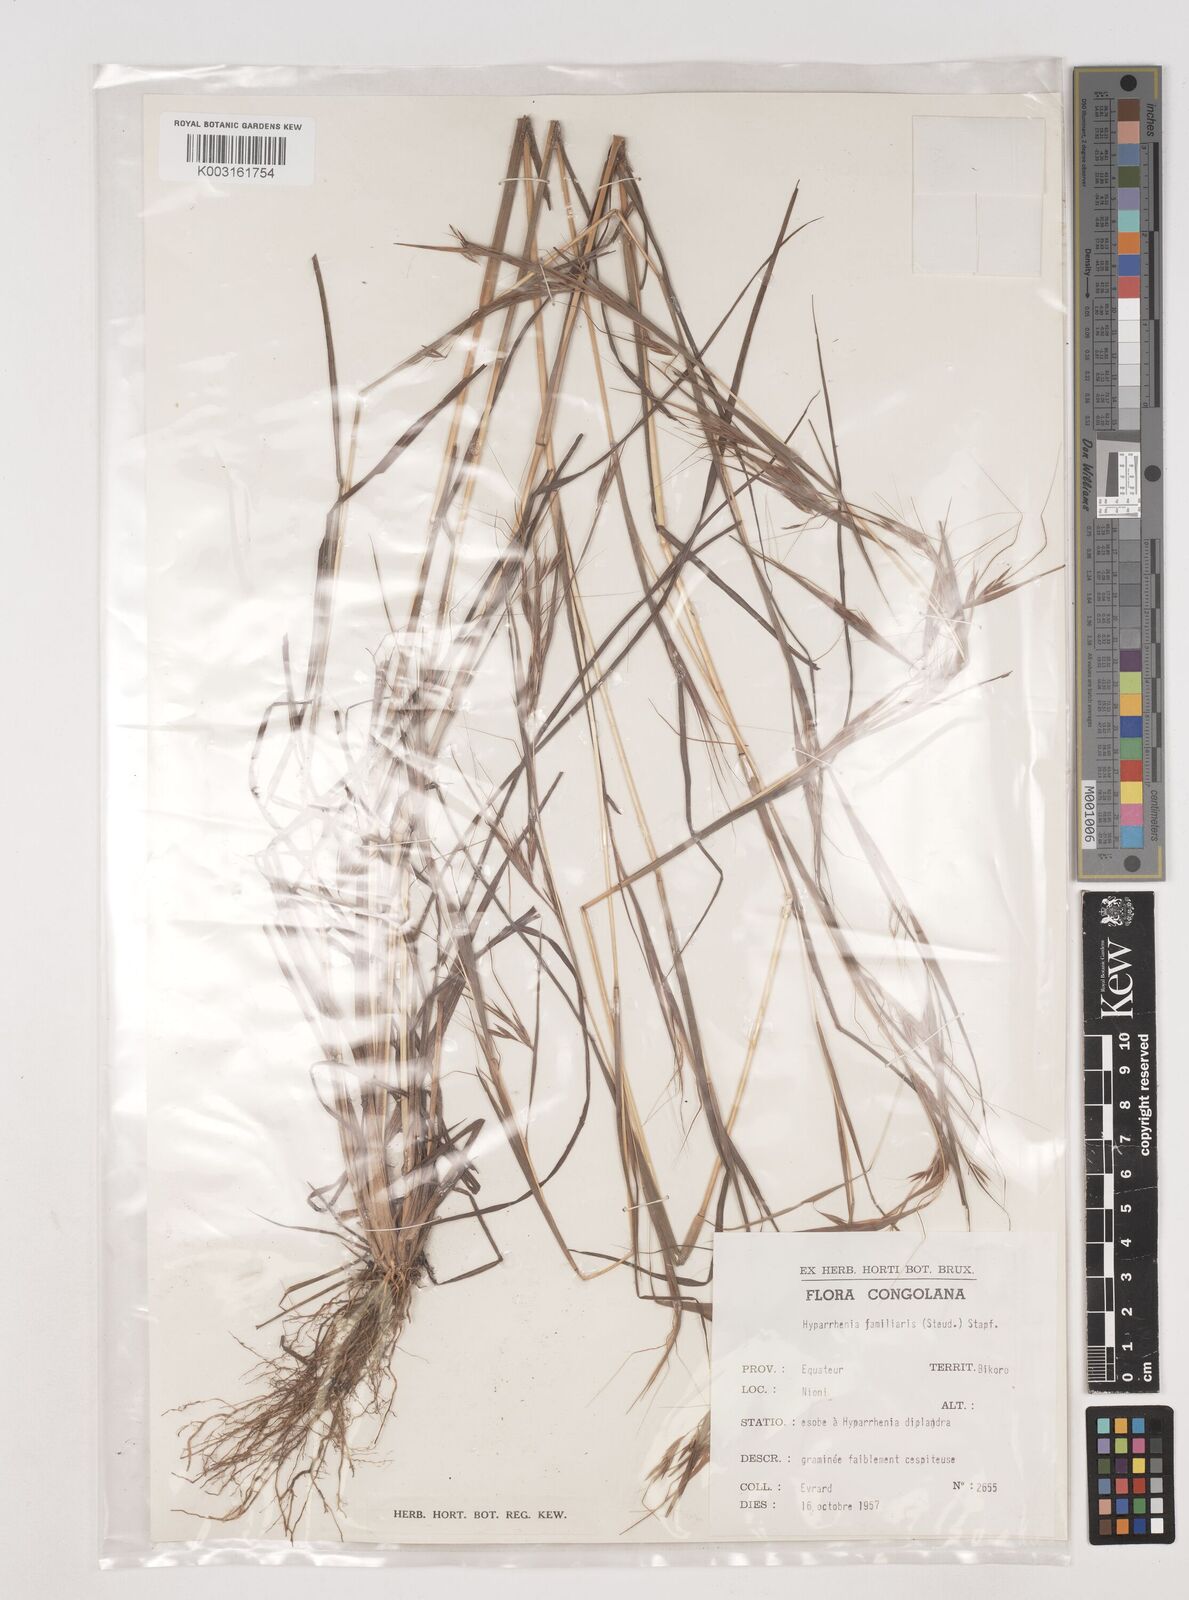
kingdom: Plantae
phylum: Tracheophyta
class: Liliopsida
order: Poales
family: Poaceae
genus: Hyparrhenia
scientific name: Hyparrhenia familiaris
